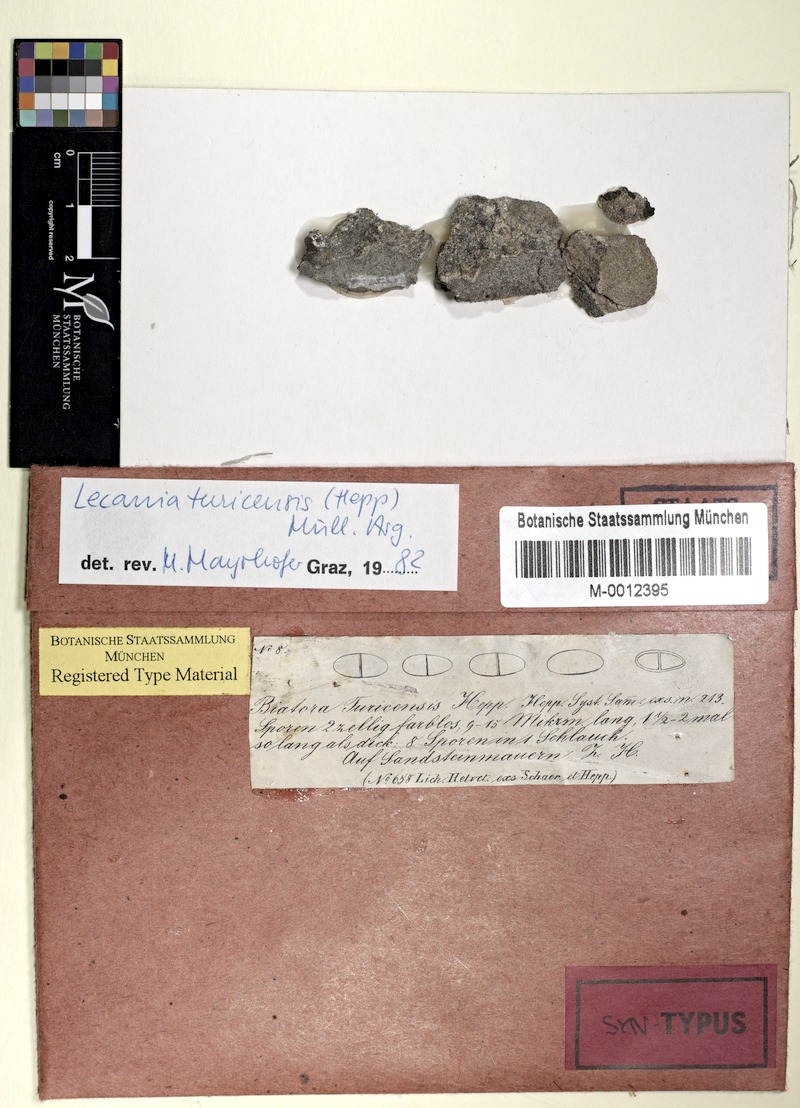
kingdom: Fungi
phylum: Ascomycota
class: Lecanoromycetes
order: Lecanorales
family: Ramalinaceae
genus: Lecania
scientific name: Lecania turicensis
